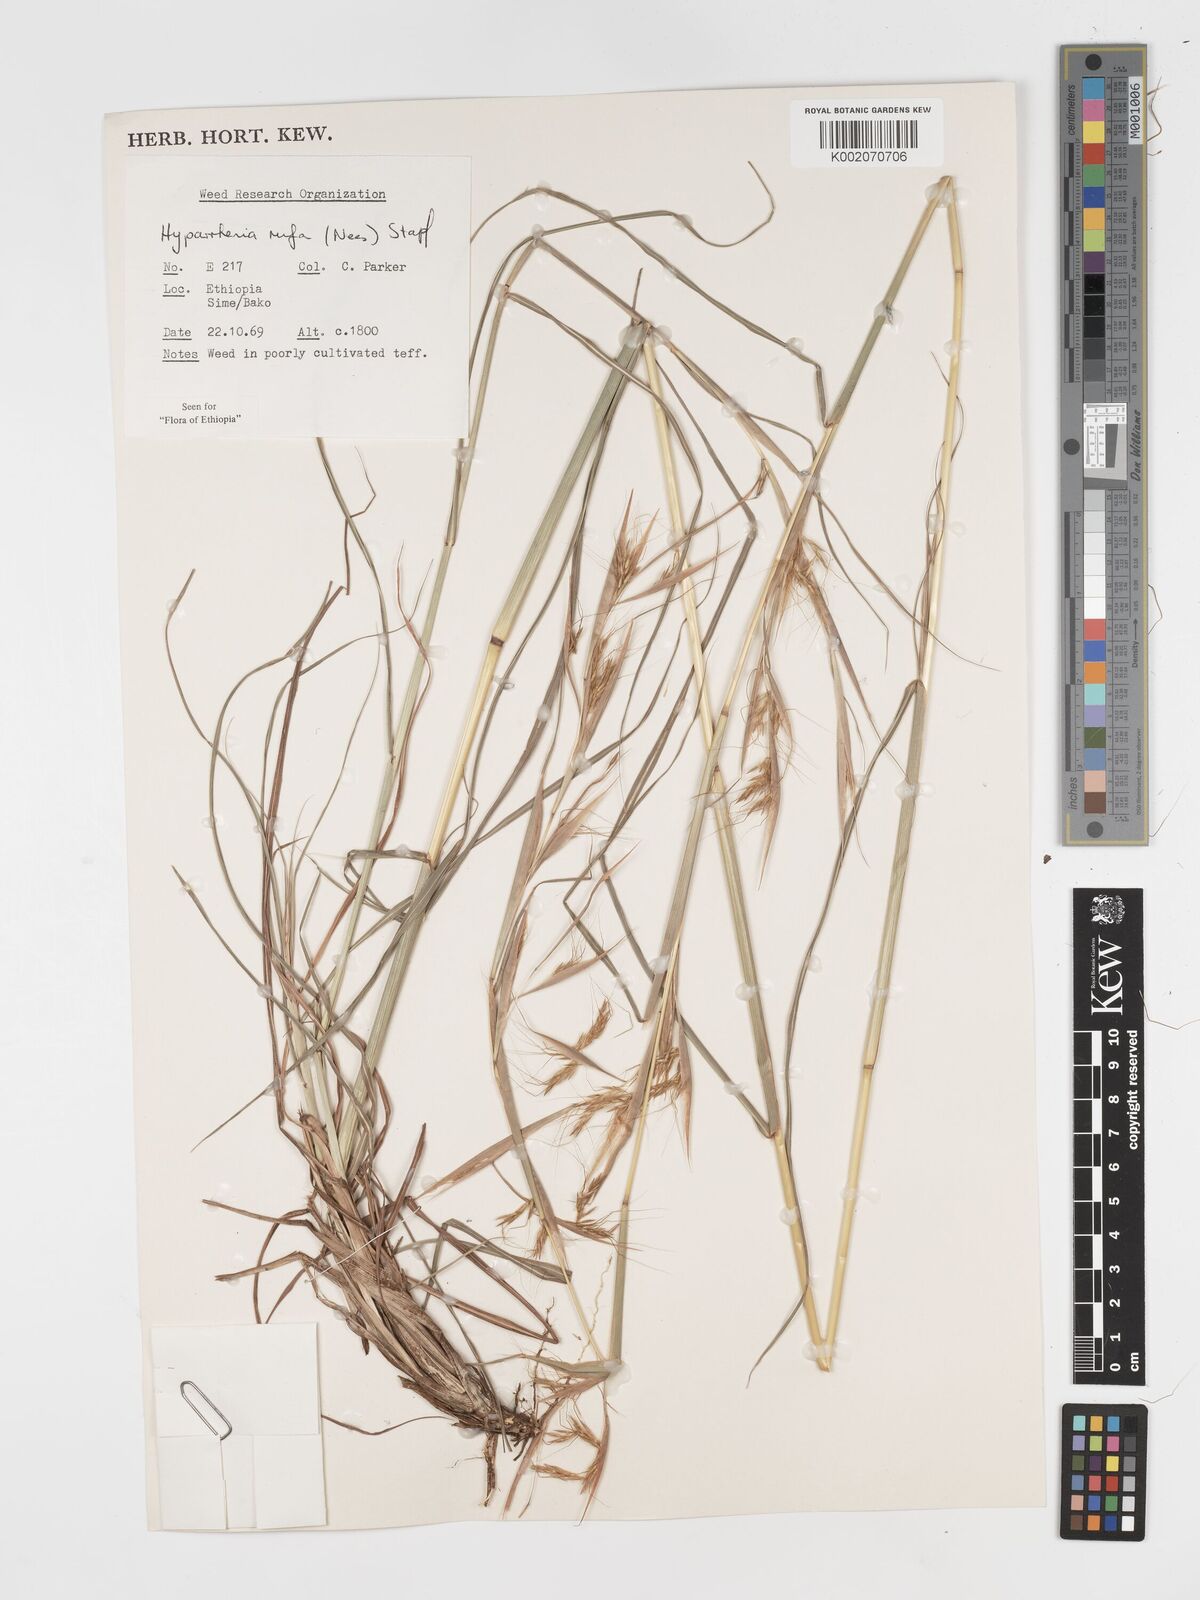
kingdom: Plantae
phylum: Tracheophyta
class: Liliopsida
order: Poales
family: Poaceae
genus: Hyparrhenia
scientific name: Hyparrhenia rufa
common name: Jaraguagrass
